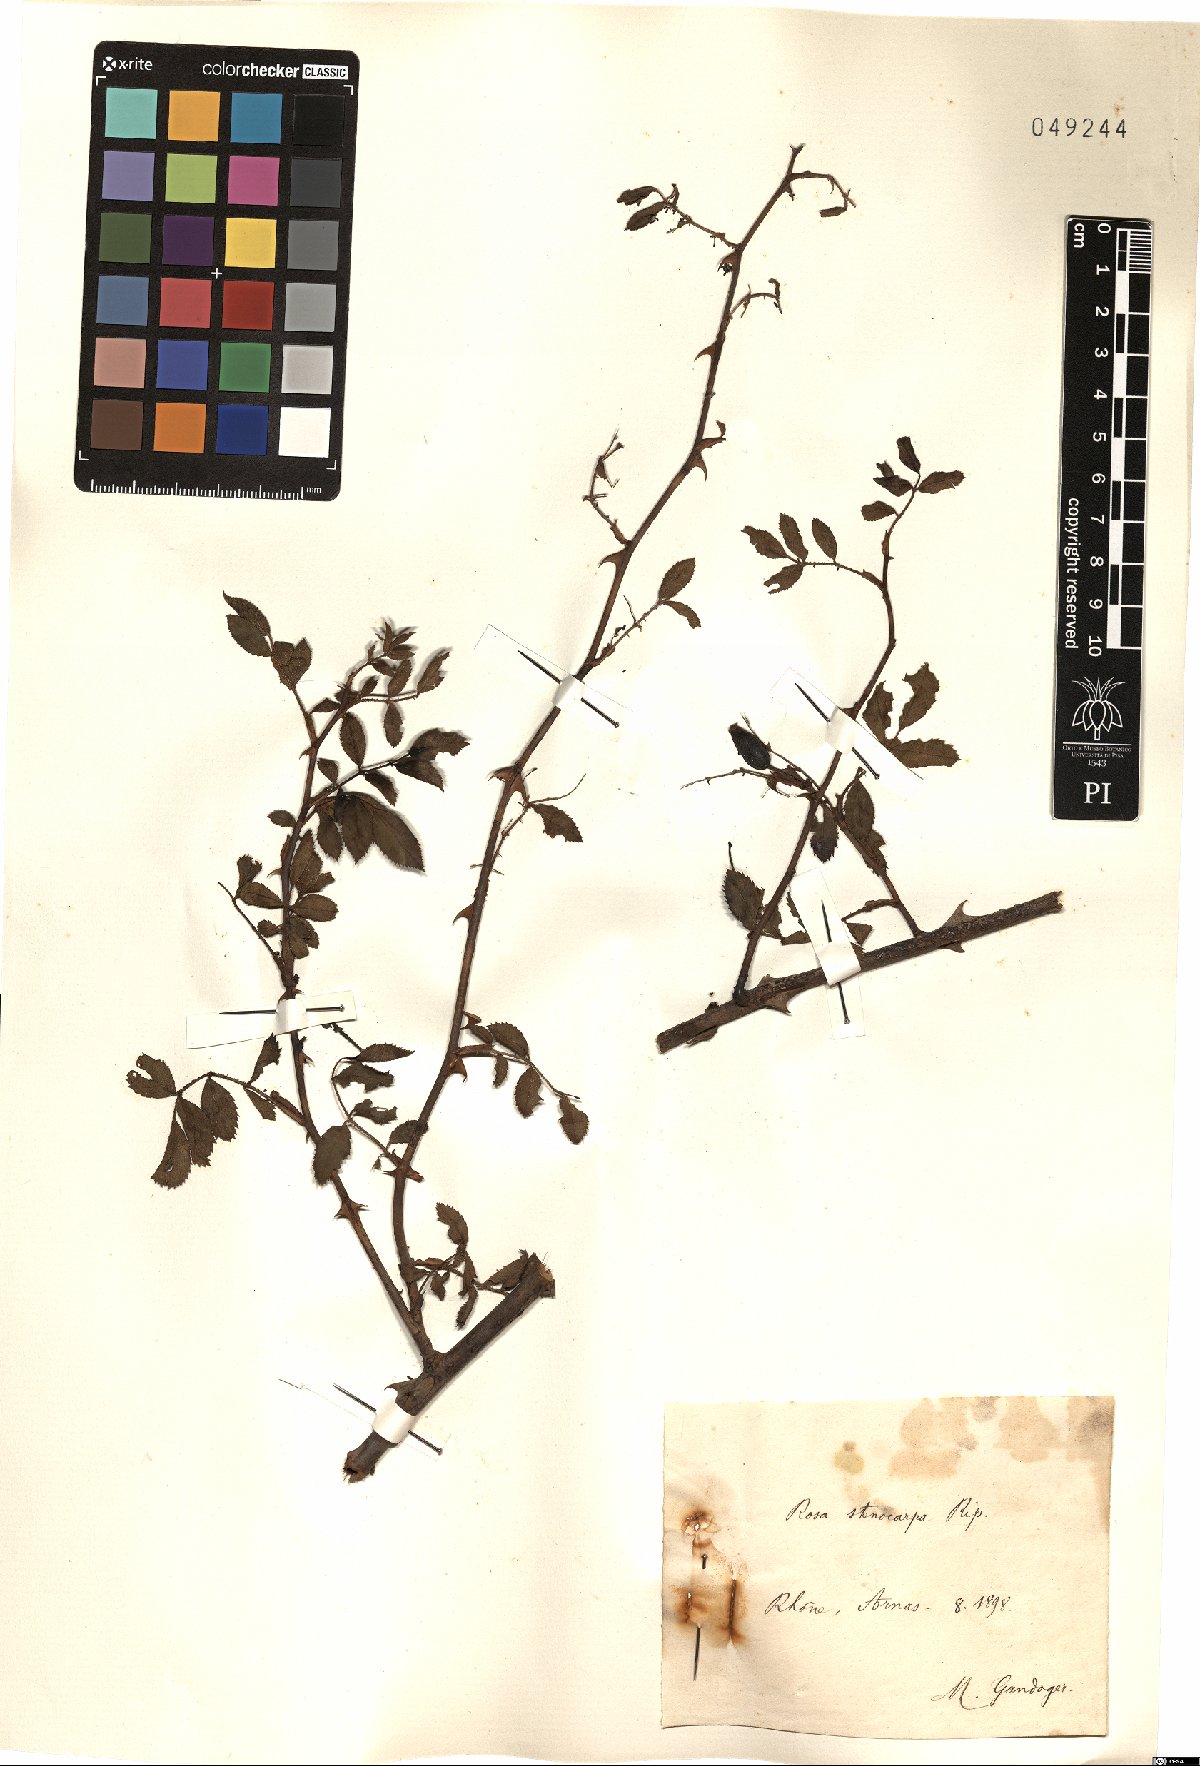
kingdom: Plantae
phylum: Tracheophyta
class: Magnoliopsida
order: Rosales
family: Rosaceae
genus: Rosa
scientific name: Rosa canina
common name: Dog rose
